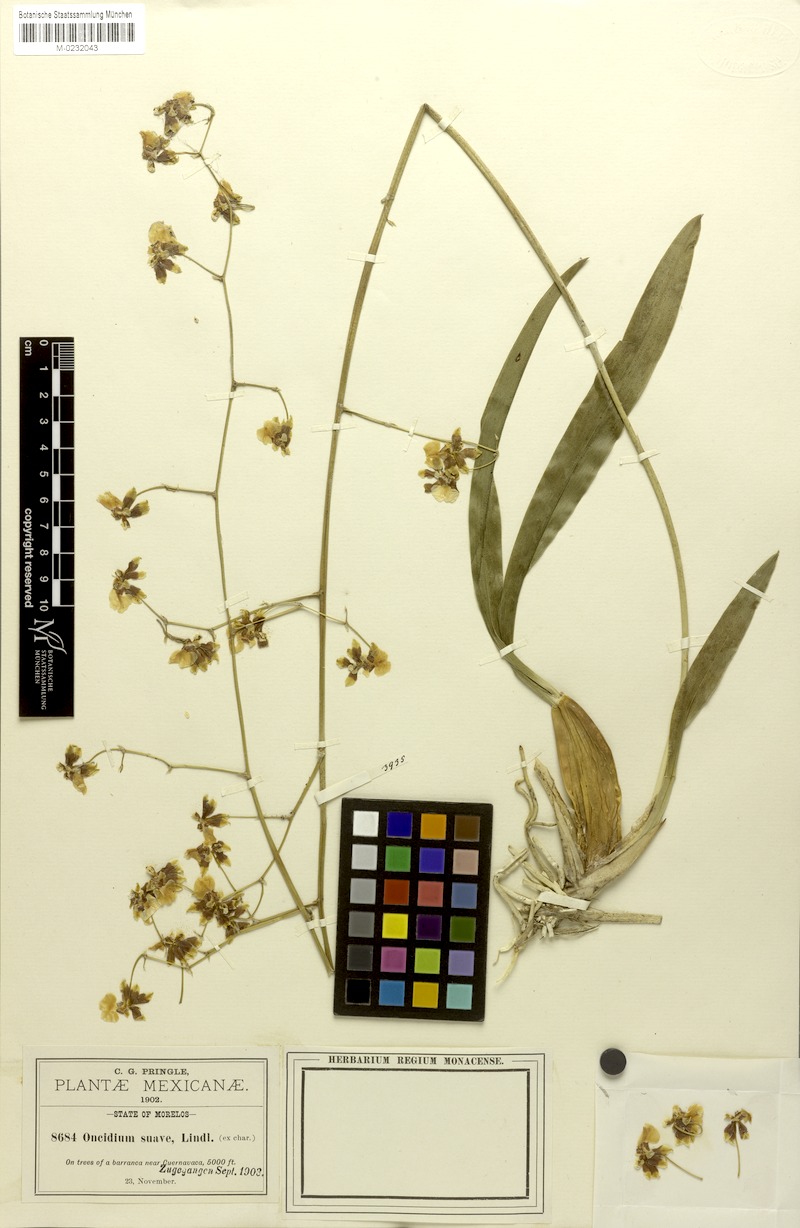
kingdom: Plantae
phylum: Tracheophyta
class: Liliopsida
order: Asparagales
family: Orchidaceae
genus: Oncidium
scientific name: Oncidium reflexum
